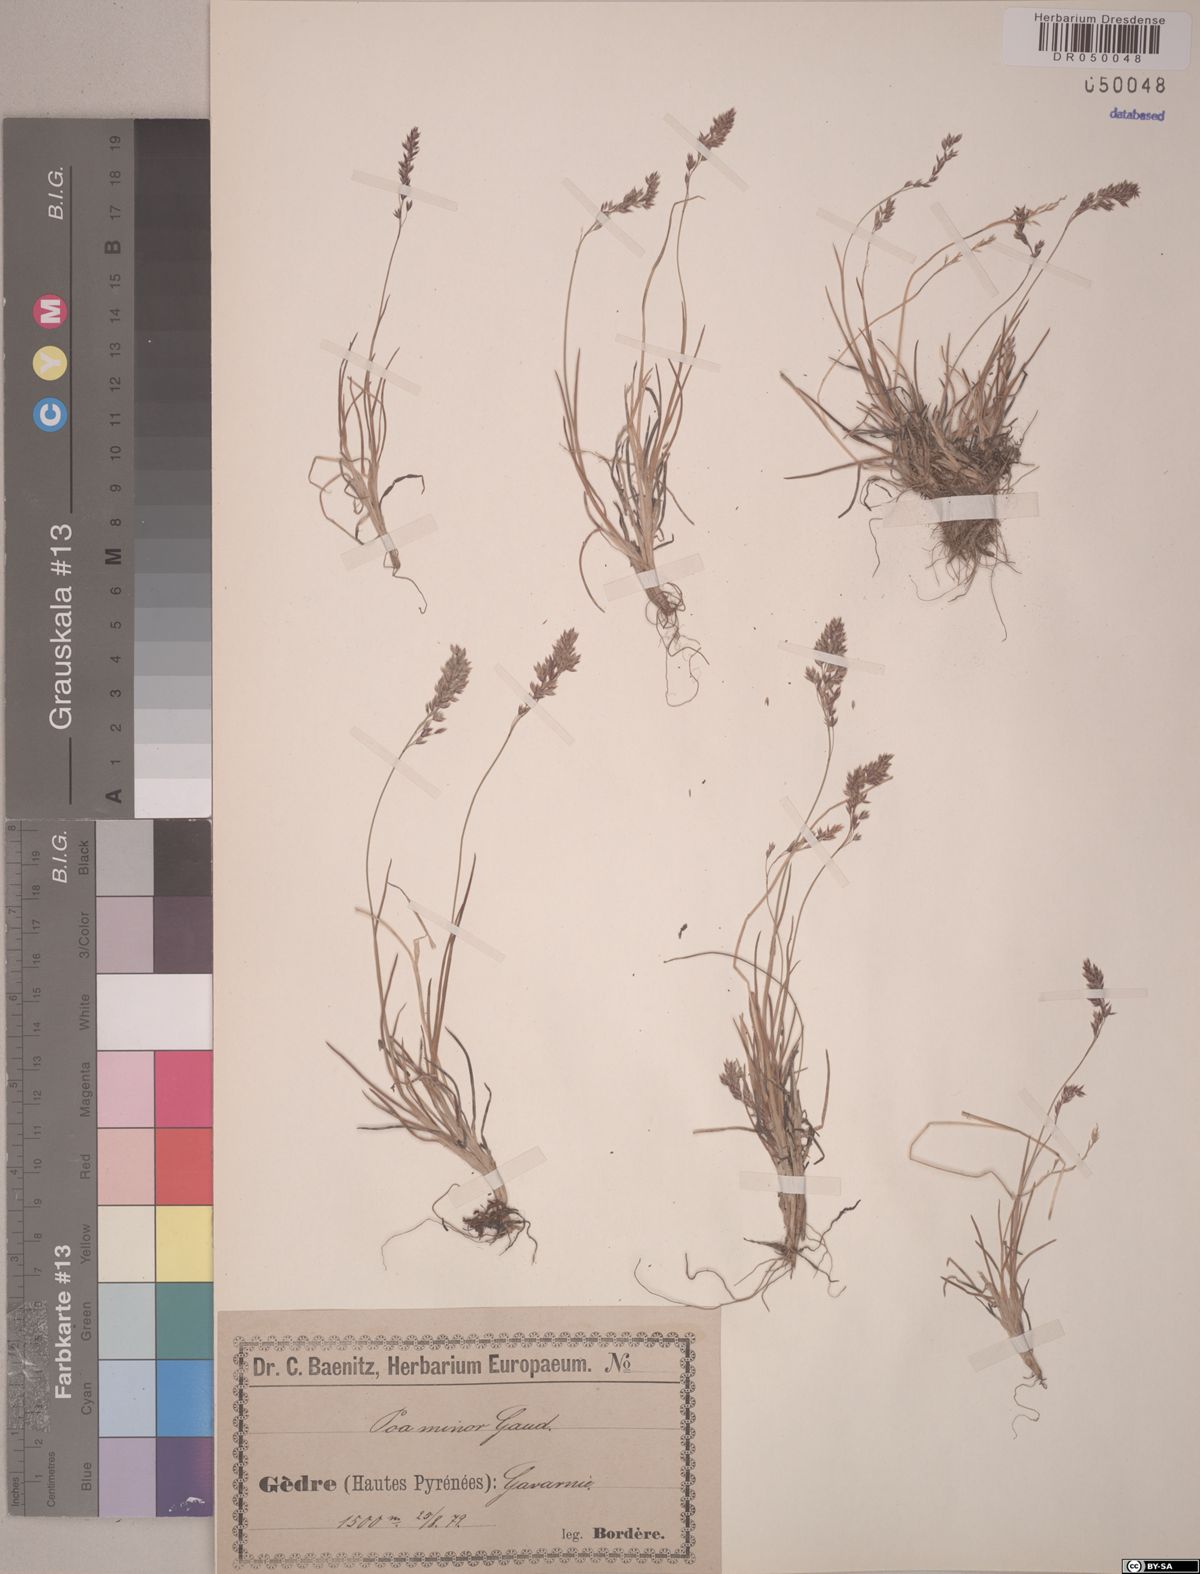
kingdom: Plantae
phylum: Tracheophyta
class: Liliopsida
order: Poales
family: Poaceae
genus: Poa
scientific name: Poa minor
